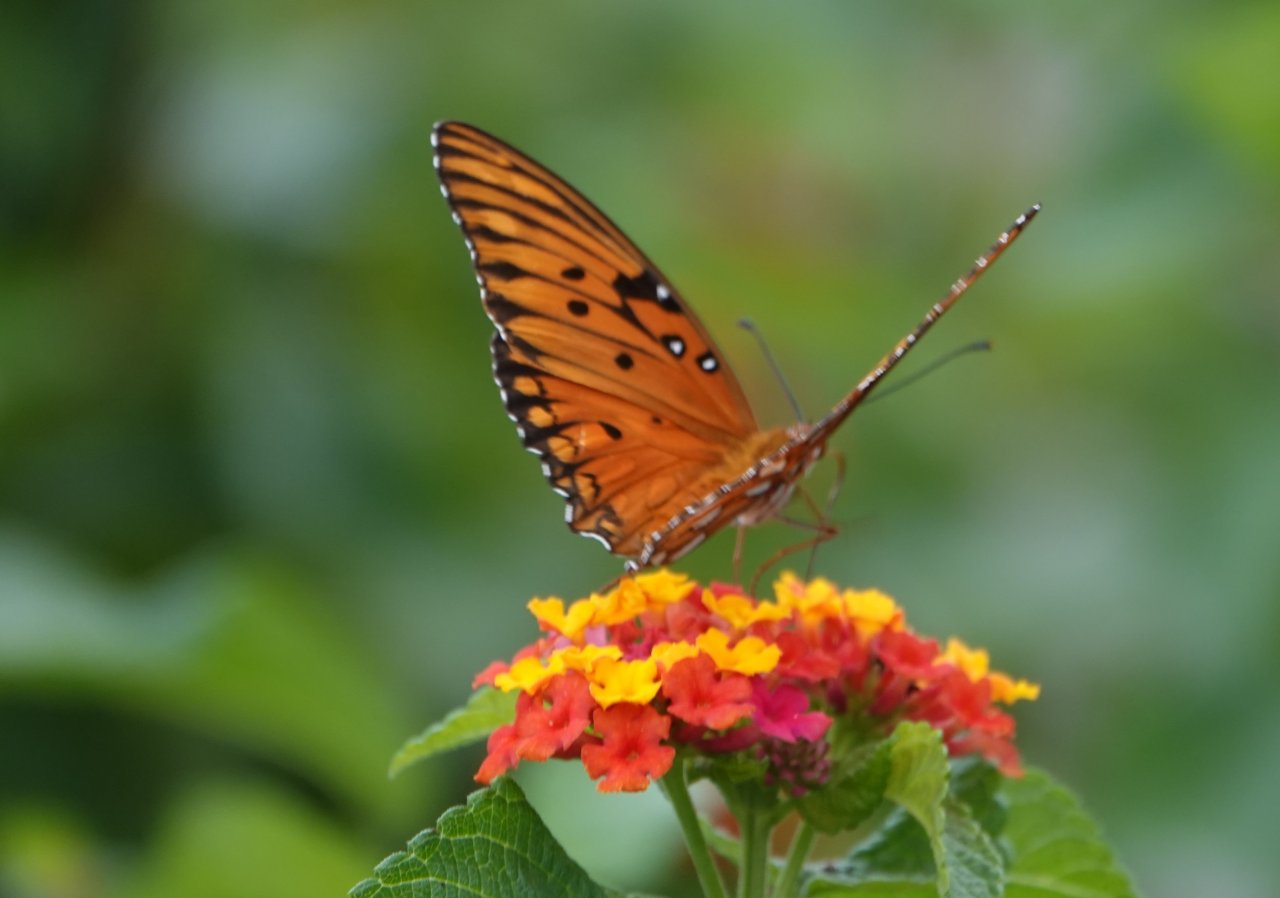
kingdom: Animalia
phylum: Arthropoda
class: Insecta
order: Lepidoptera
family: Nymphalidae
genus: Dione
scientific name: Dione vanillae
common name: Gulf Fritillary
